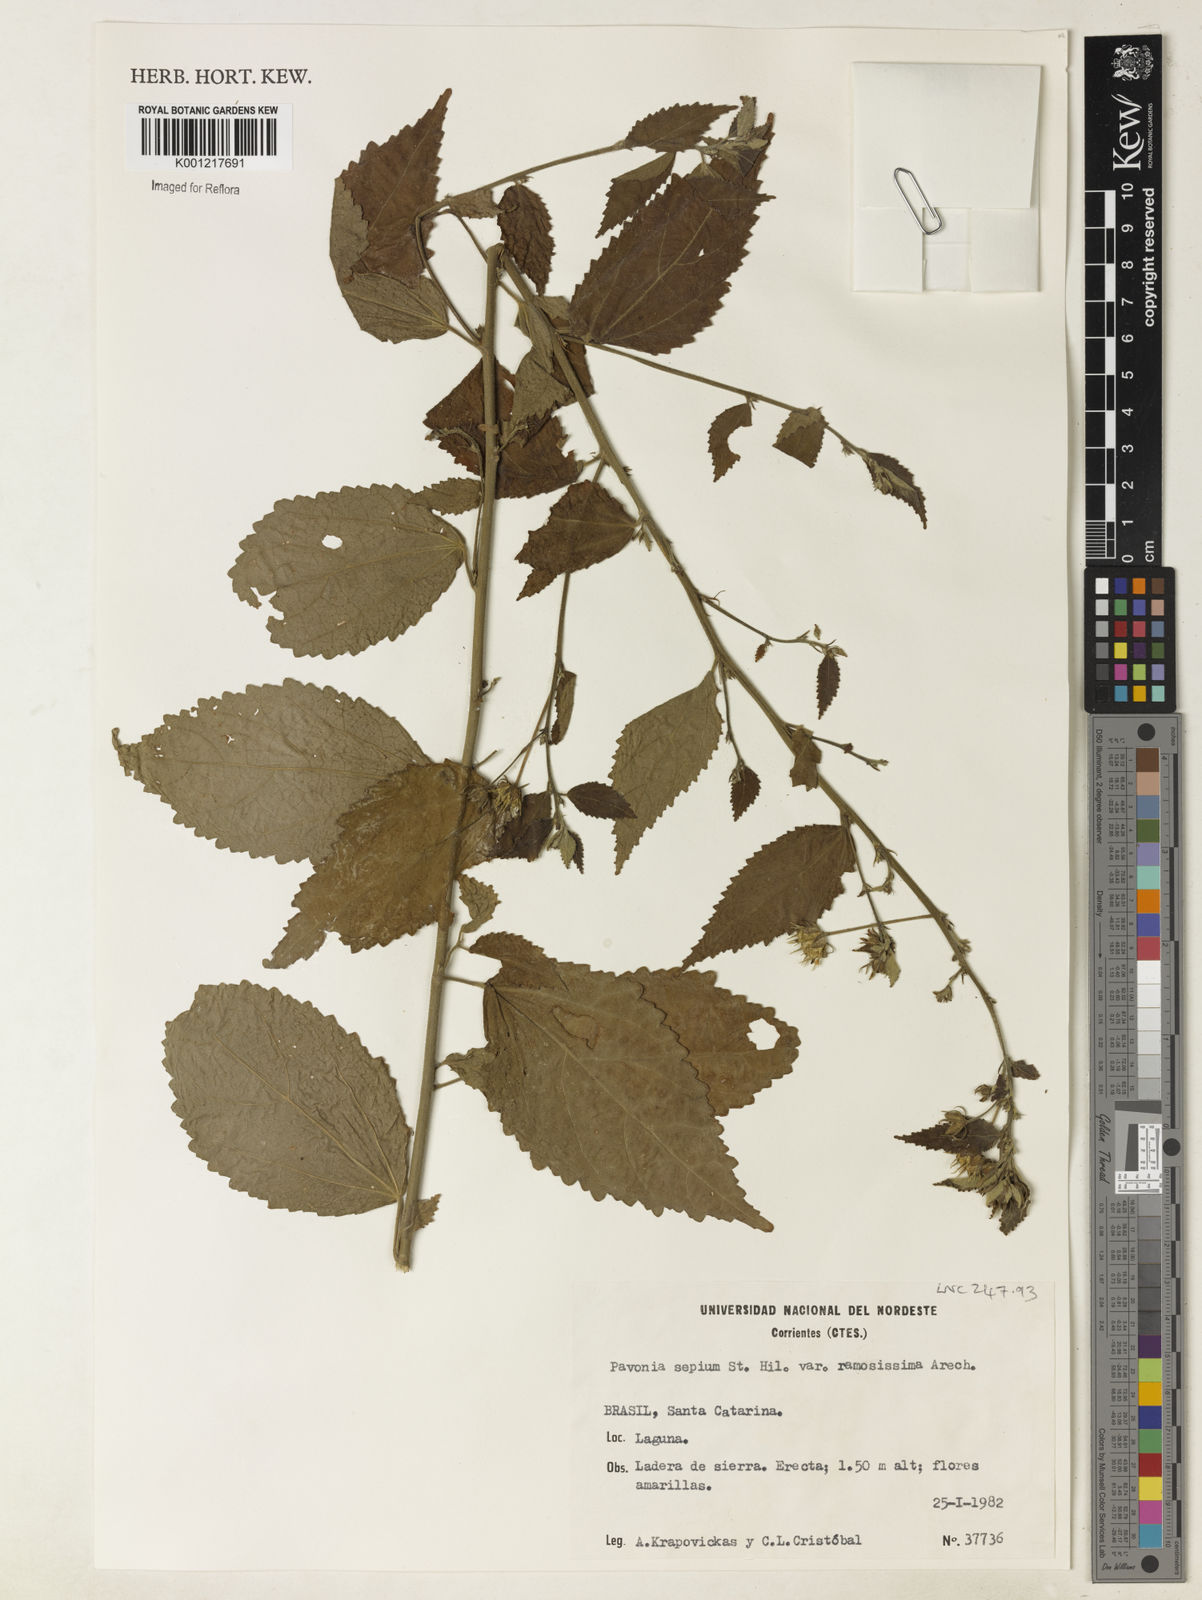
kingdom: Plantae
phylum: Tracheophyta
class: Magnoliopsida
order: Malvales
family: Malvaceae
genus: Pavonia
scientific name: Pavonia ramosissima
